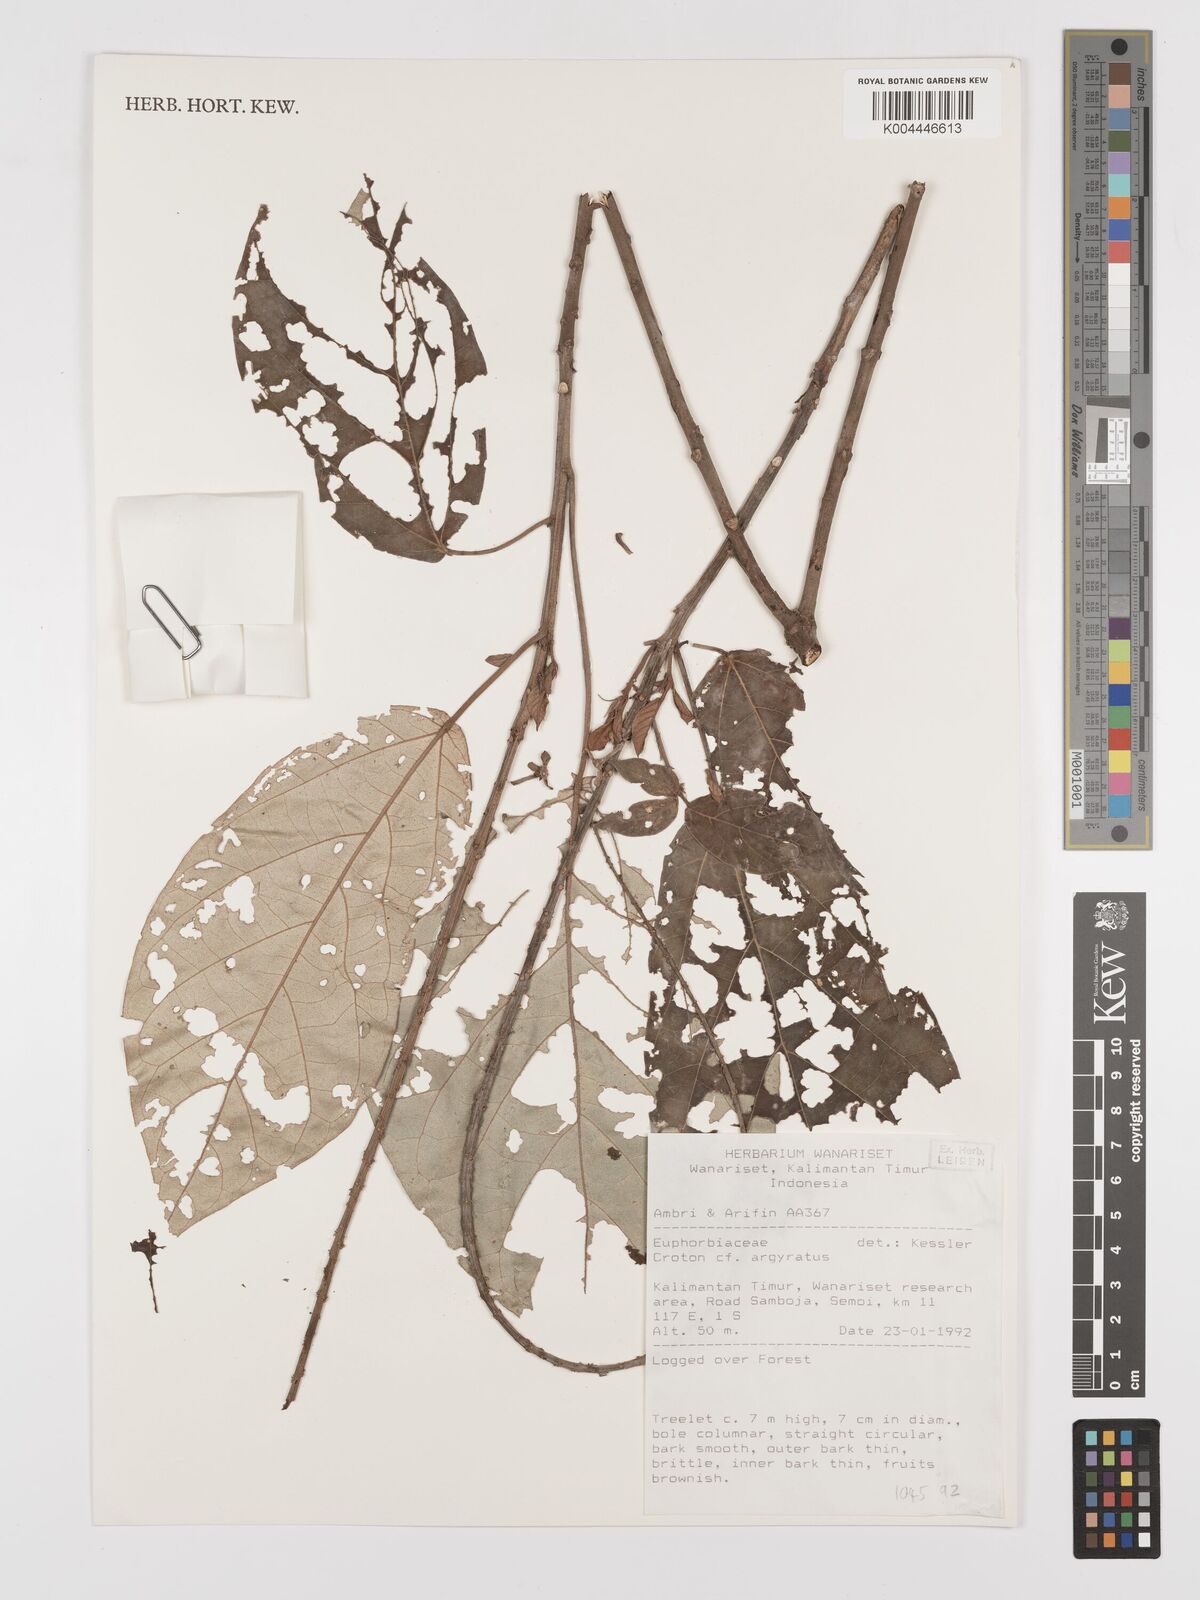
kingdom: Plantae
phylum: Tracheophyta
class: Magnoliopsida
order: Malpighiales
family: Euphorbiaceae
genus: Croton
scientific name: Croton argyratus
